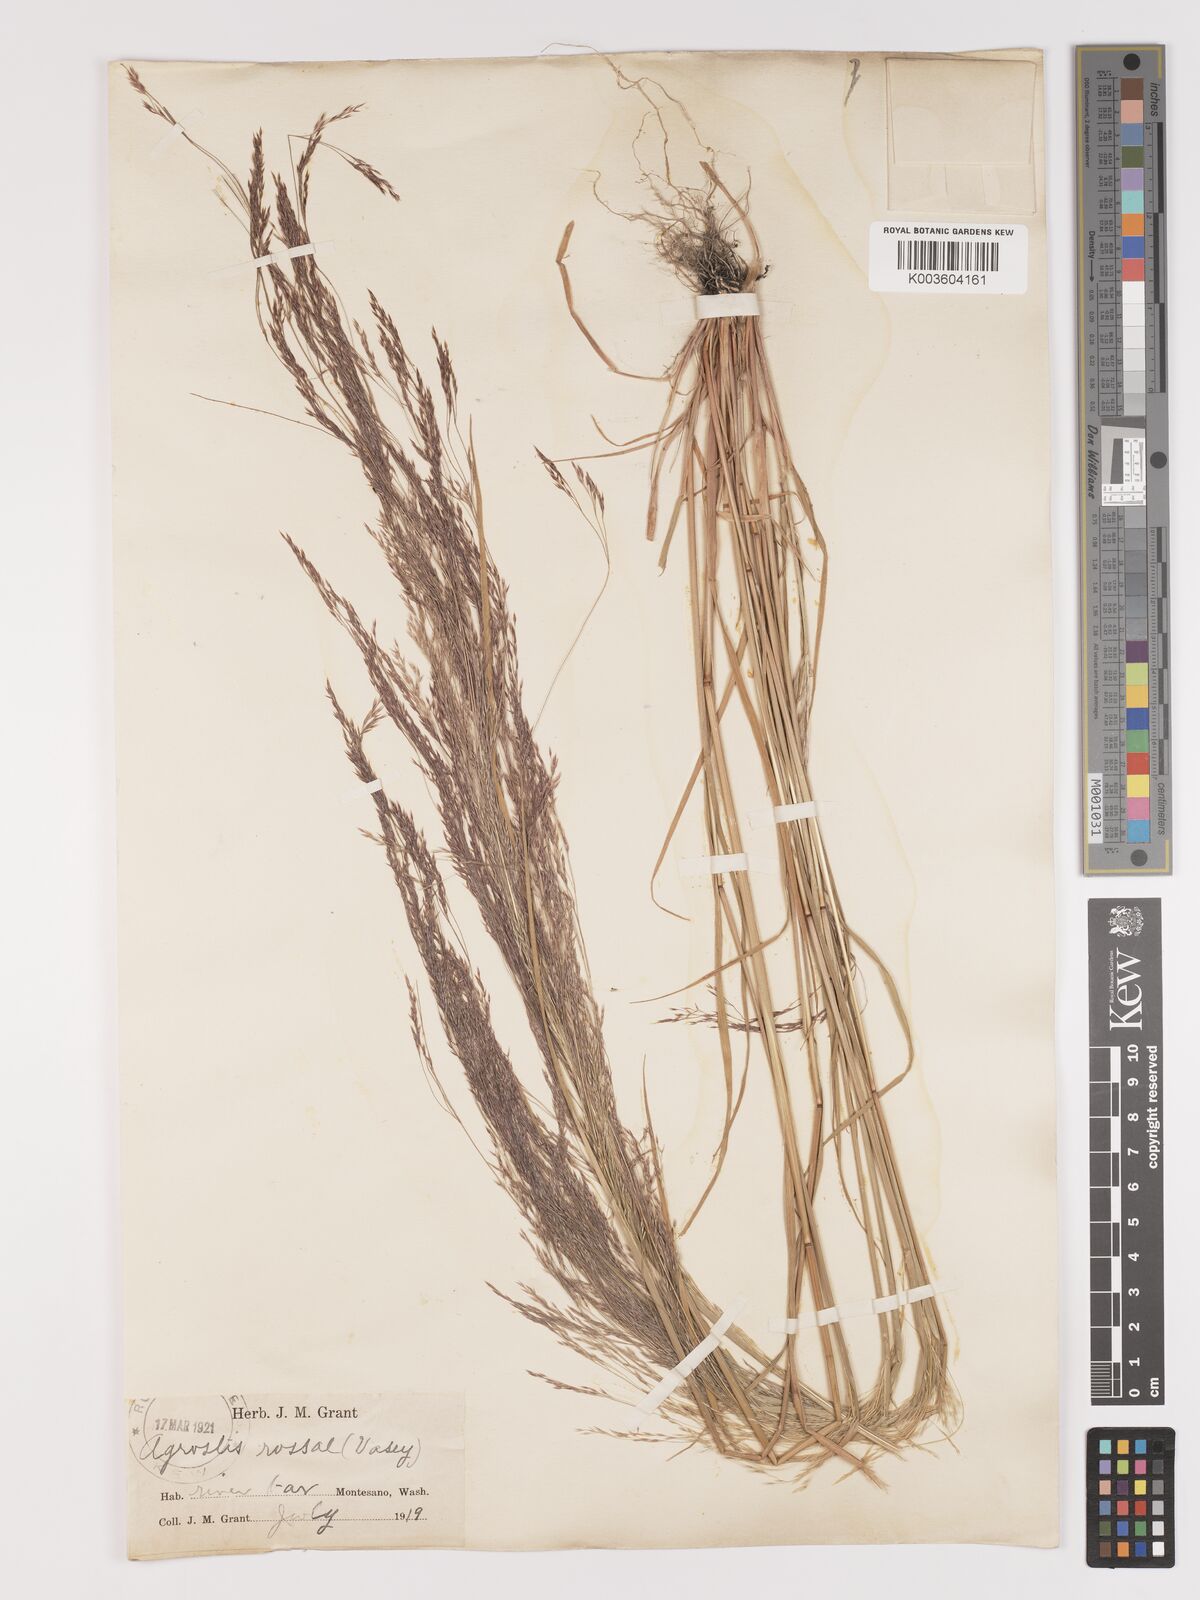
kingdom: Plantae
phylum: Tracheophyta
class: Liliopsida
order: Poales
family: Poaceae
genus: Agrostis
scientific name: Agrostis rossiae
